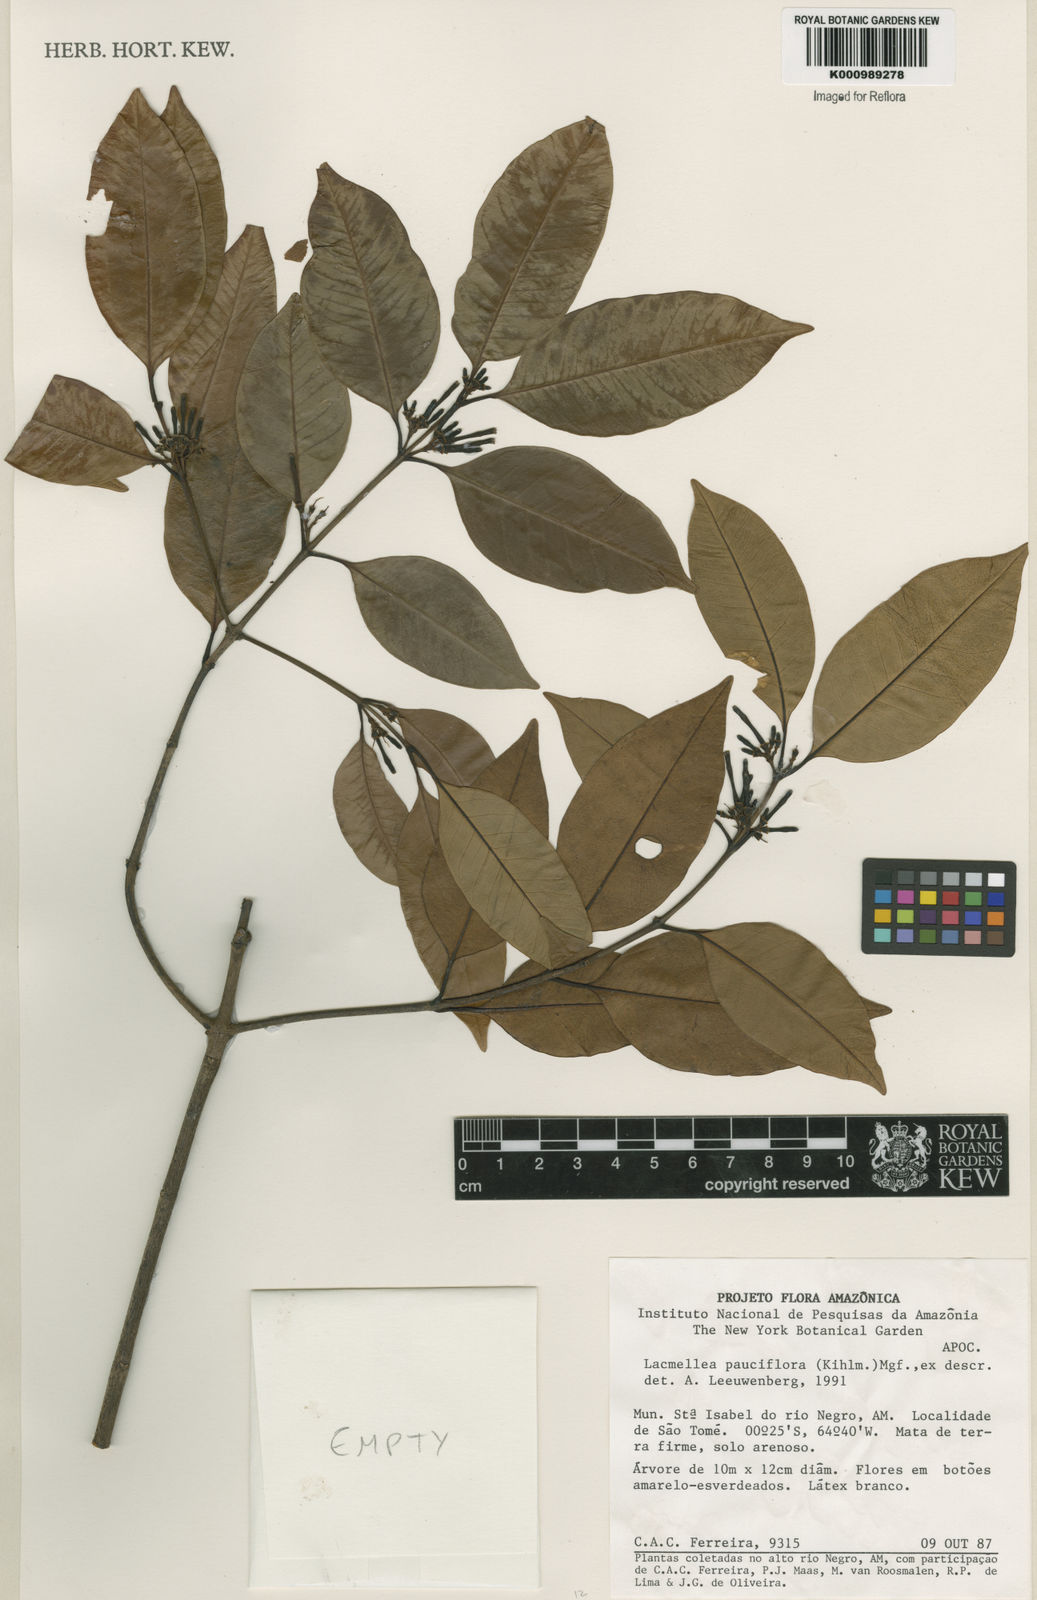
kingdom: Plantae
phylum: Tracheophyta
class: Magnoliopsida
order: Gentianales
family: Apocynaceae
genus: Lacmellea
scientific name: Lacmellea pauciflora
